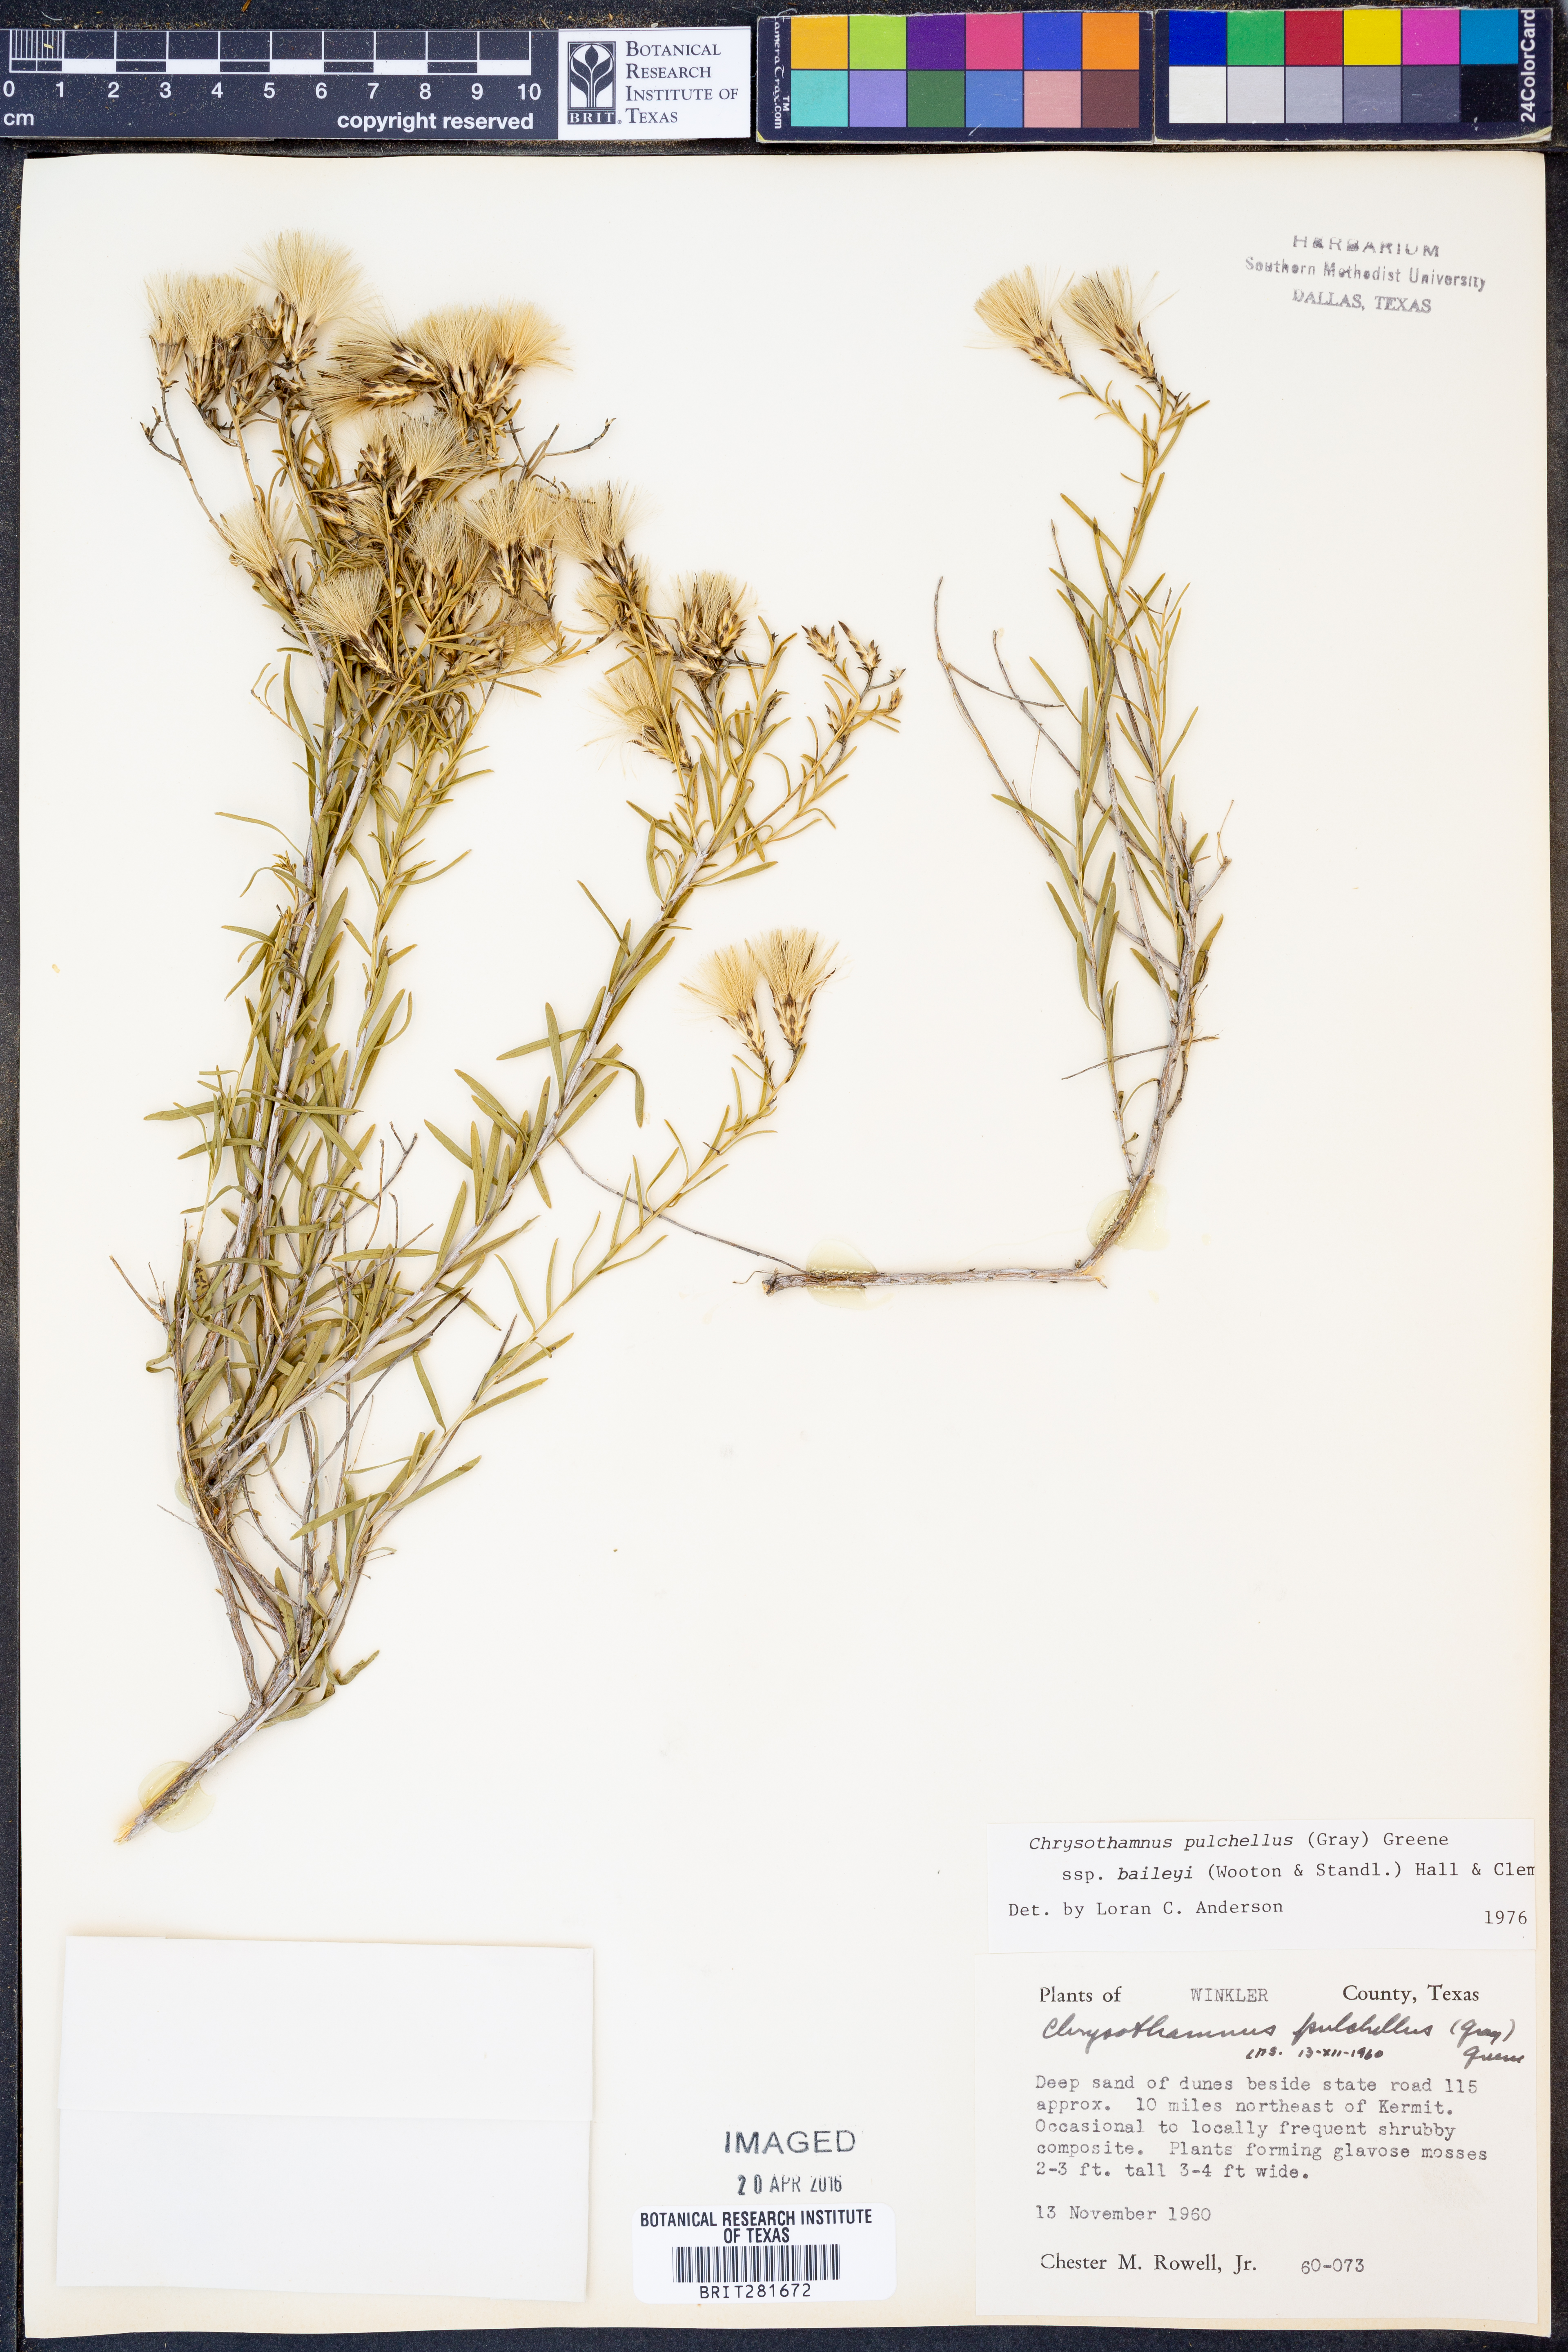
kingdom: Plantae
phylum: Tracheophyta
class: Magnoliopsida
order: Asterales
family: Asteraceae
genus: Lorandersonia
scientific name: Lorandersonia baileyi
